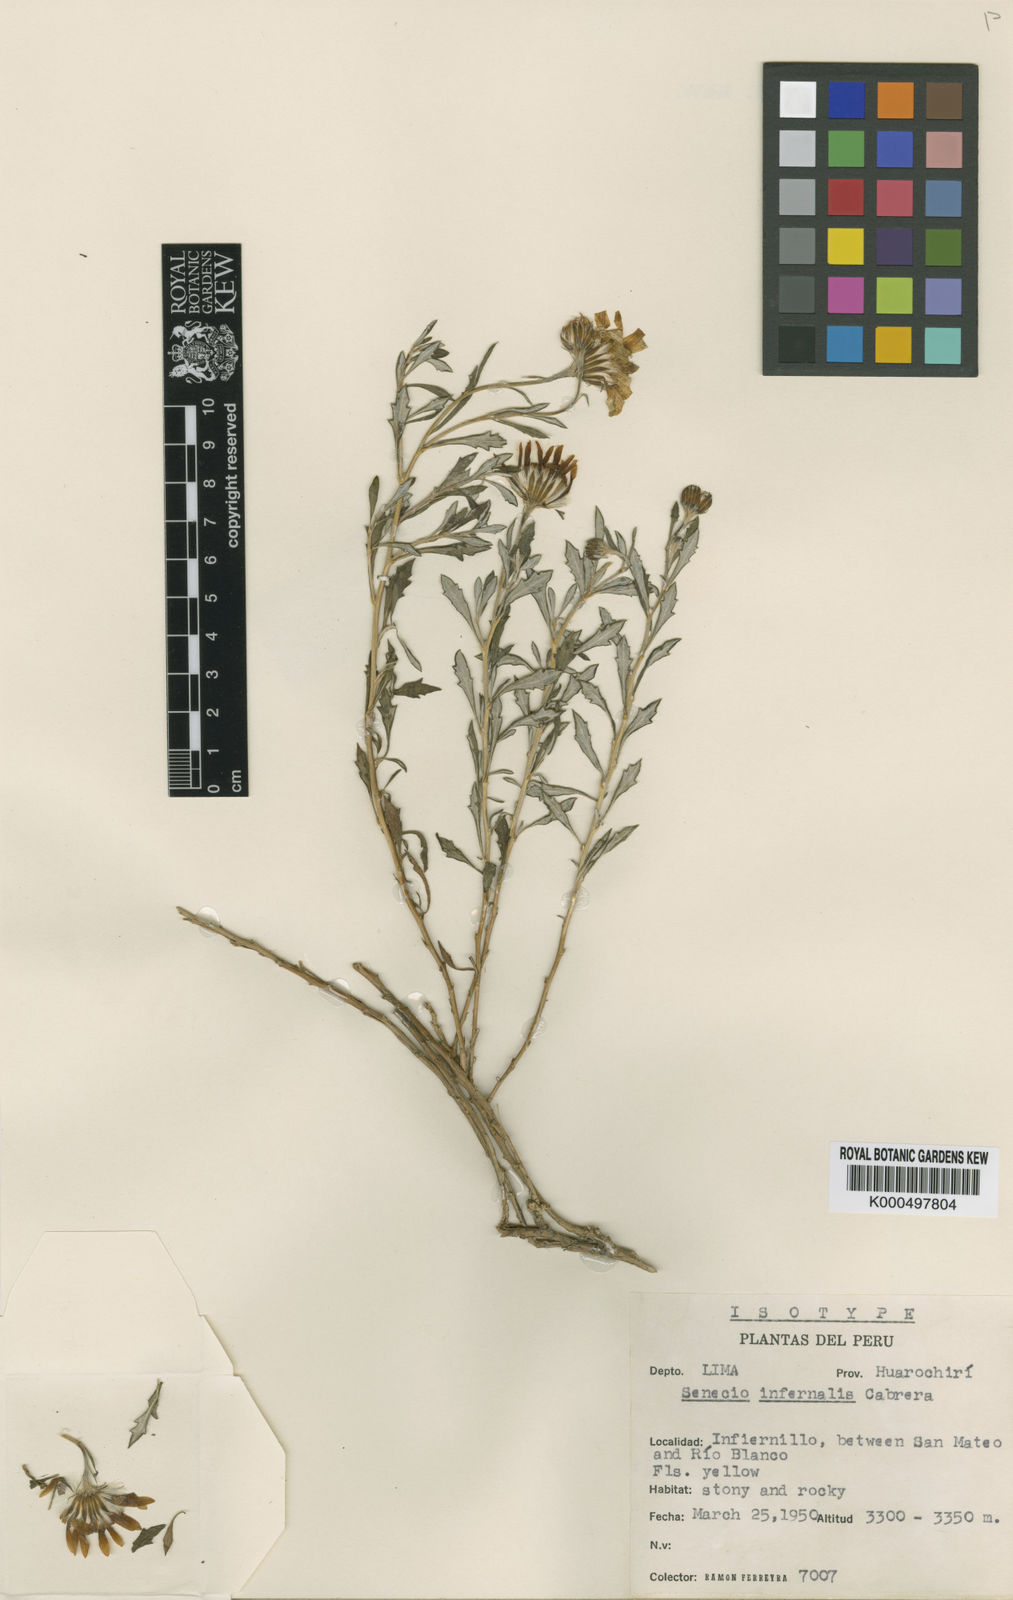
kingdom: Plantae
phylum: Tracheophyta
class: Magnoliopsida
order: Asterales
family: Asteraceae
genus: Lomanthus
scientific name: Lomanthus infernalis
